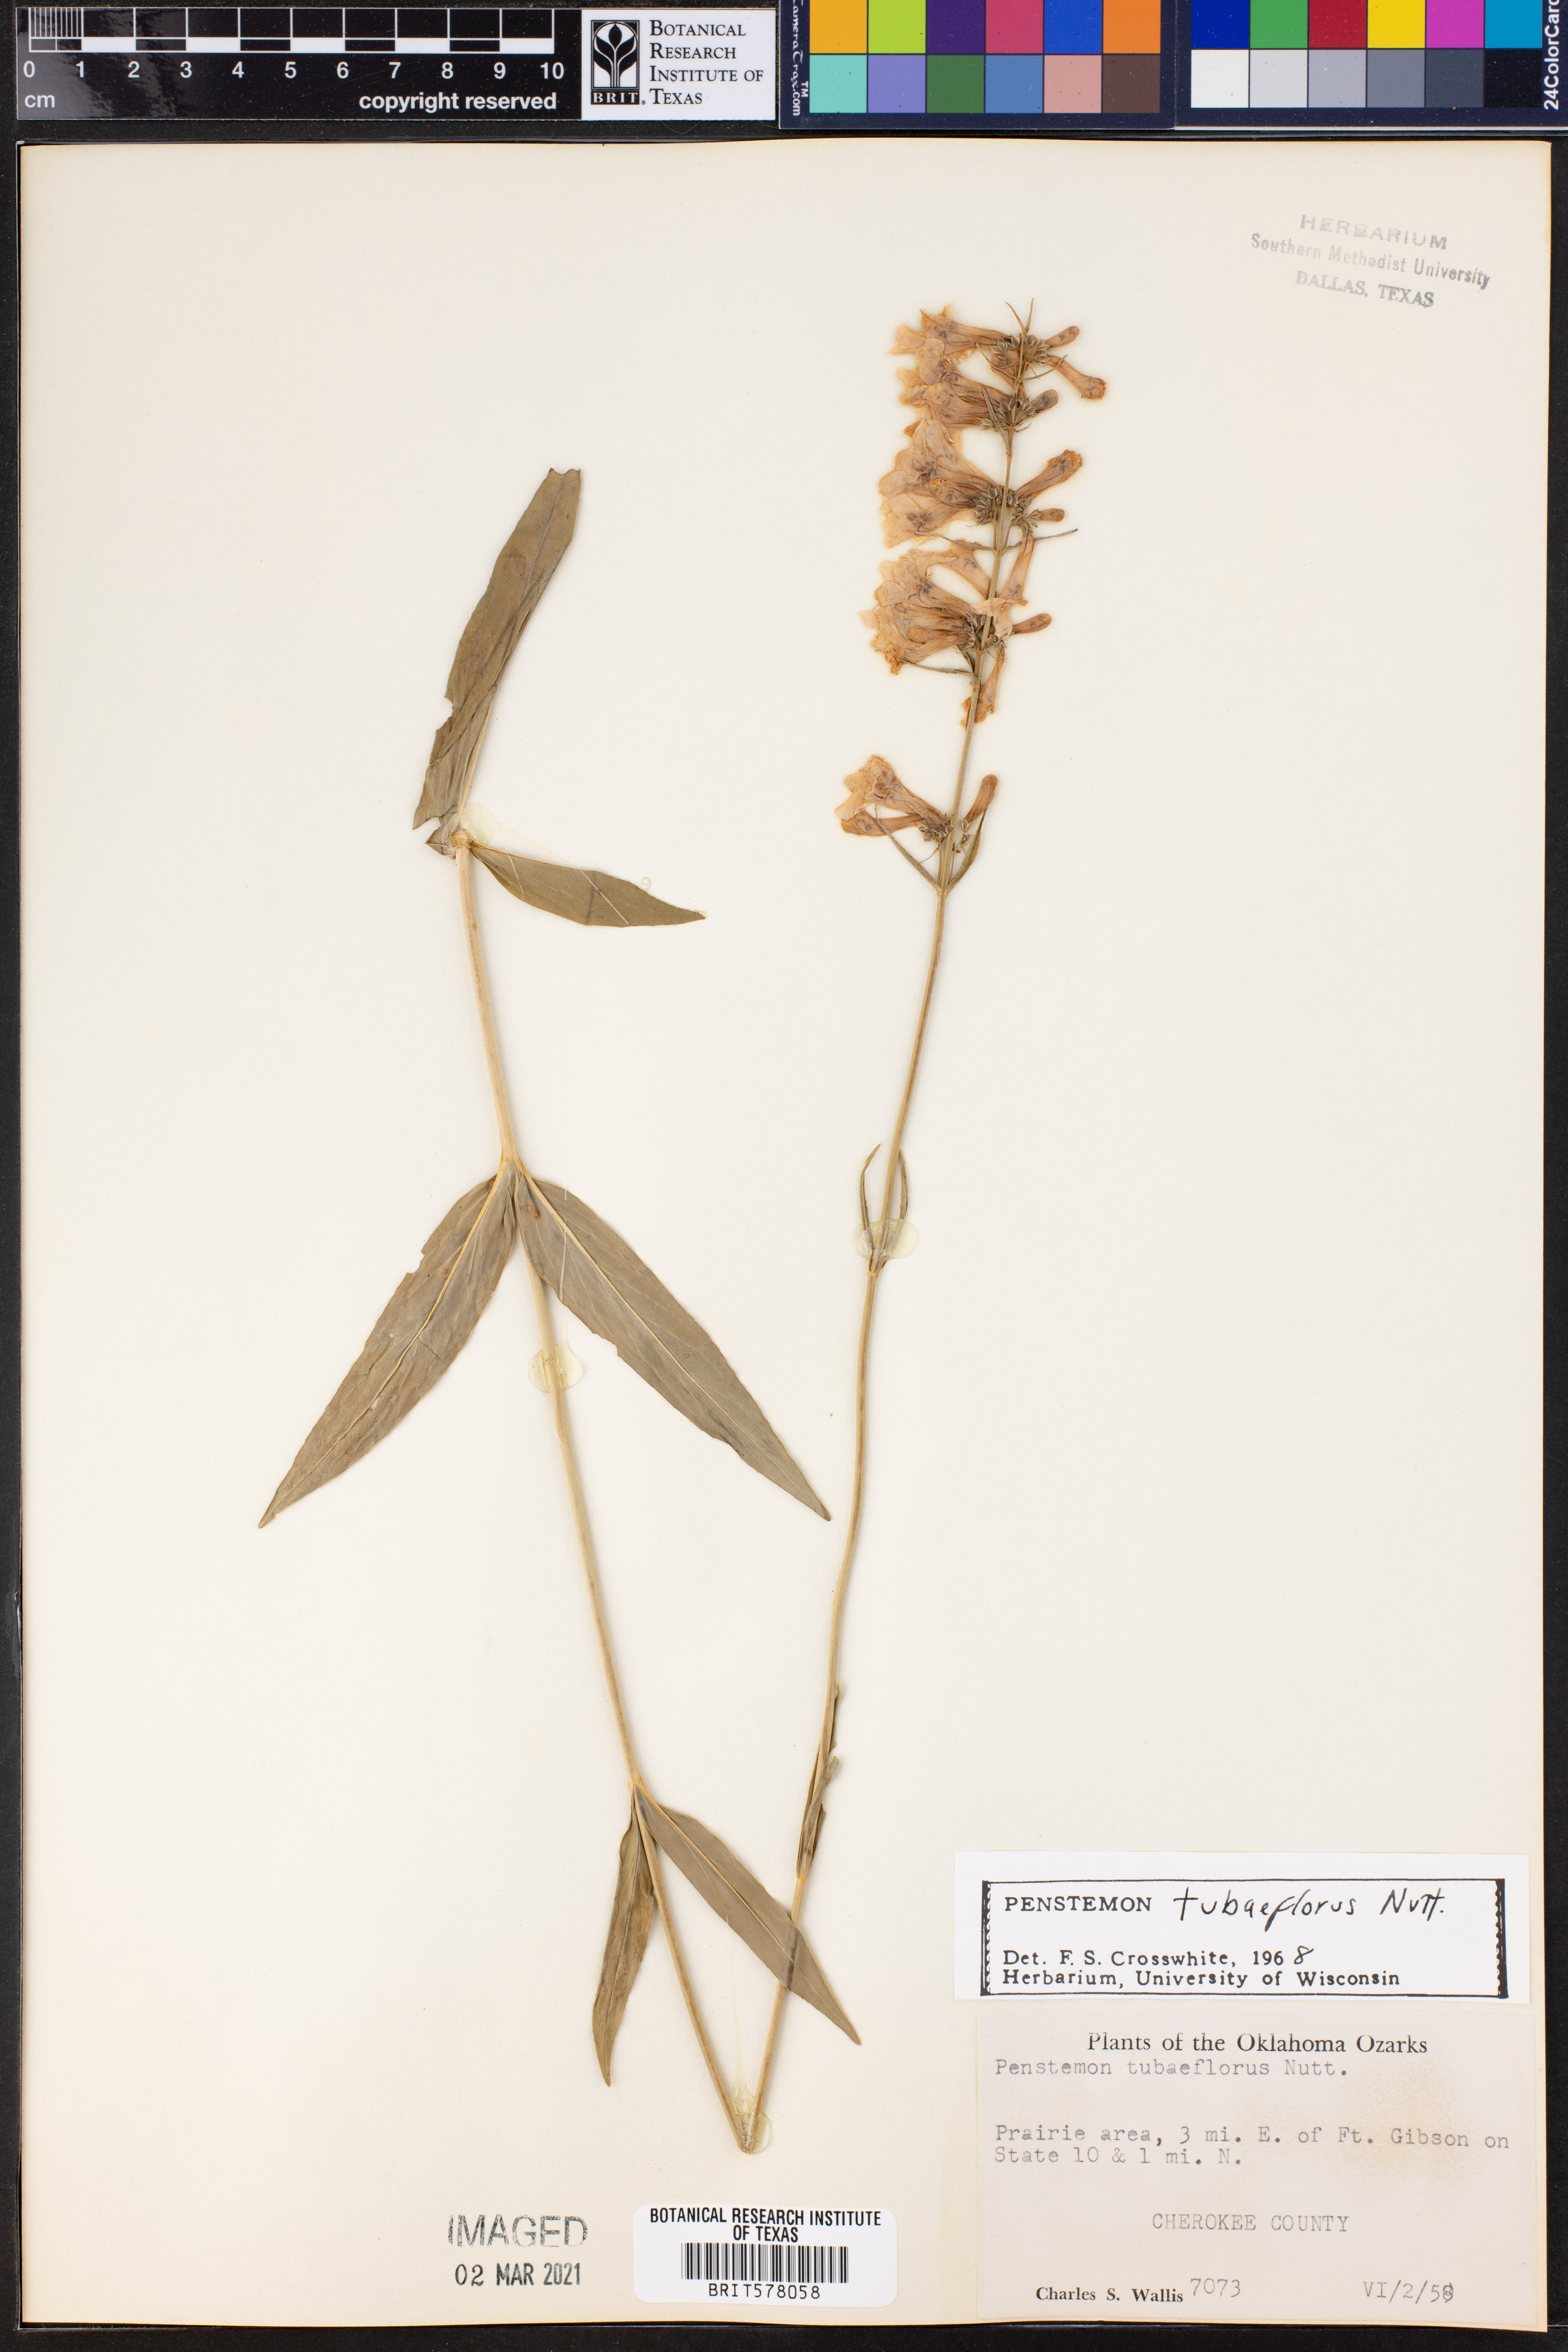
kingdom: Plantae
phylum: Tracheophyta
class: Magnoliopsida
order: Lamiales
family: Plantaginaceae
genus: Penstemon
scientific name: Penstemon tubaeflorus
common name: White wand beardtongue
